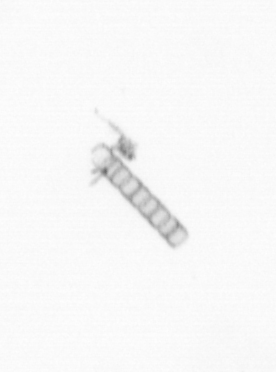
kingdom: Chromista
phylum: Ochrophyta
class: Bacillariophyceae
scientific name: Bacillariophyceae
